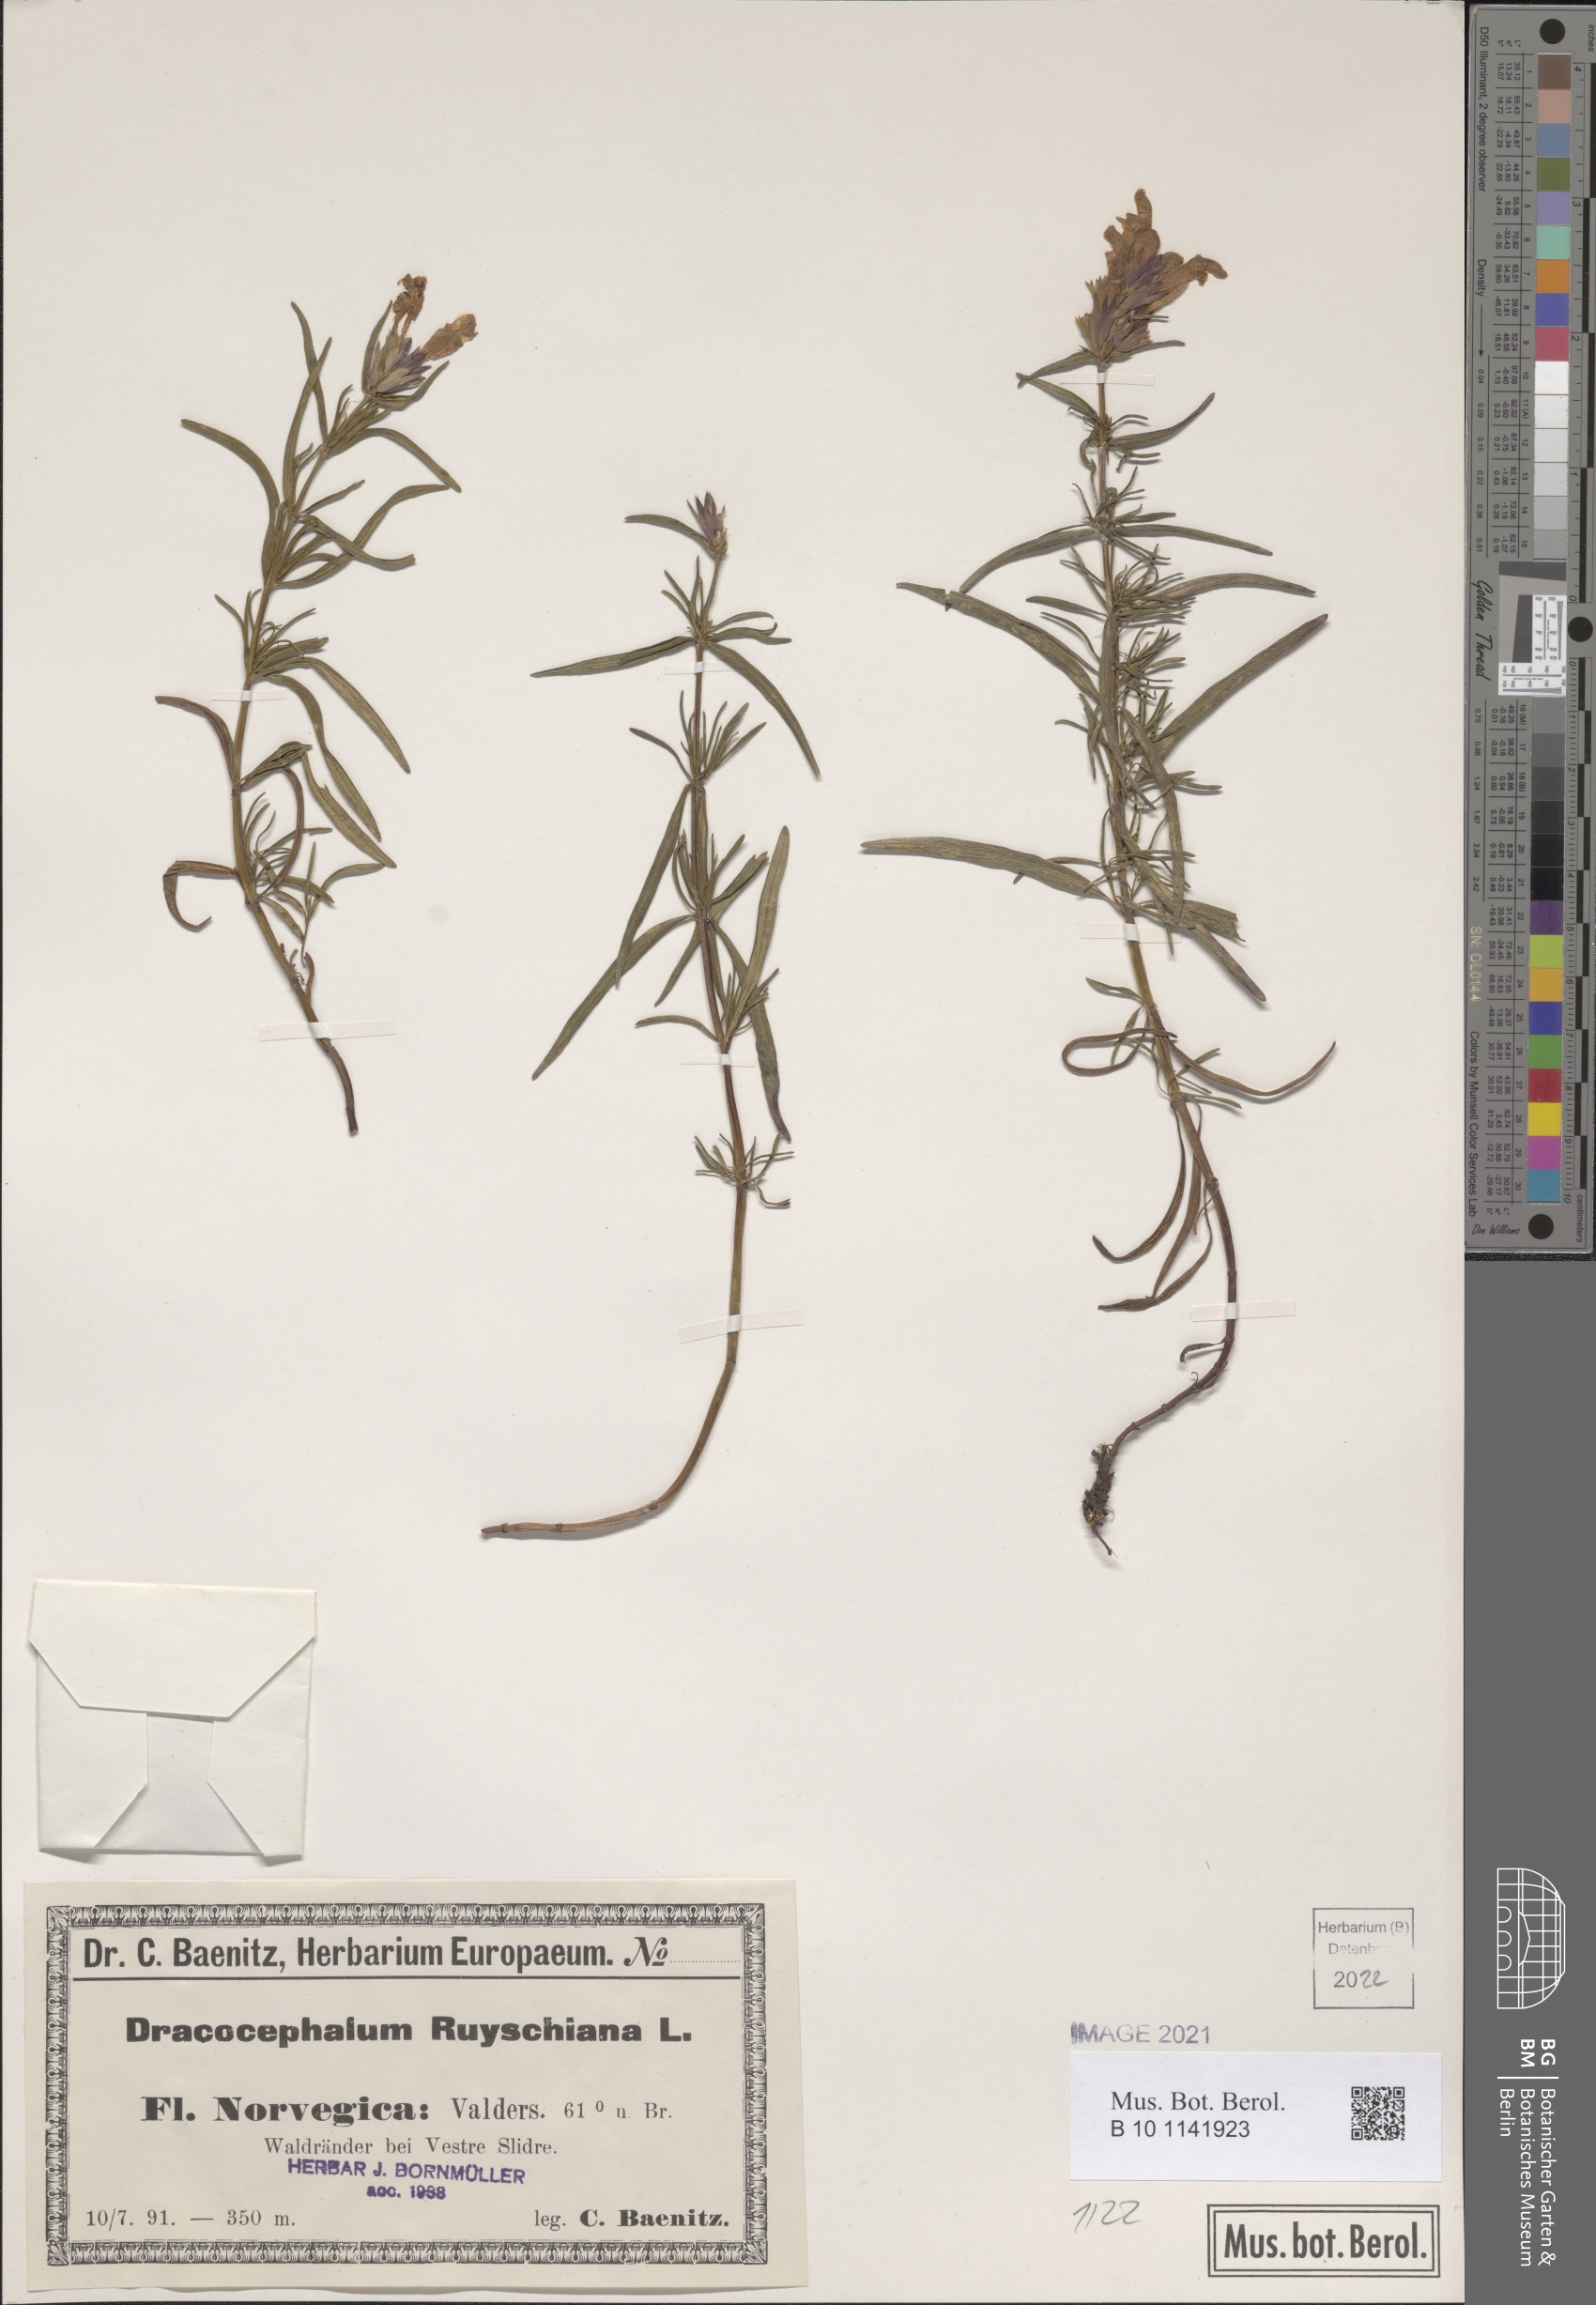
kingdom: Plantae
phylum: Tracheophyta
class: Magnoliopsida
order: Lamiales
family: Lamiaceae
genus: Dracocephalum
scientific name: Dracocephalum ruyschiana
